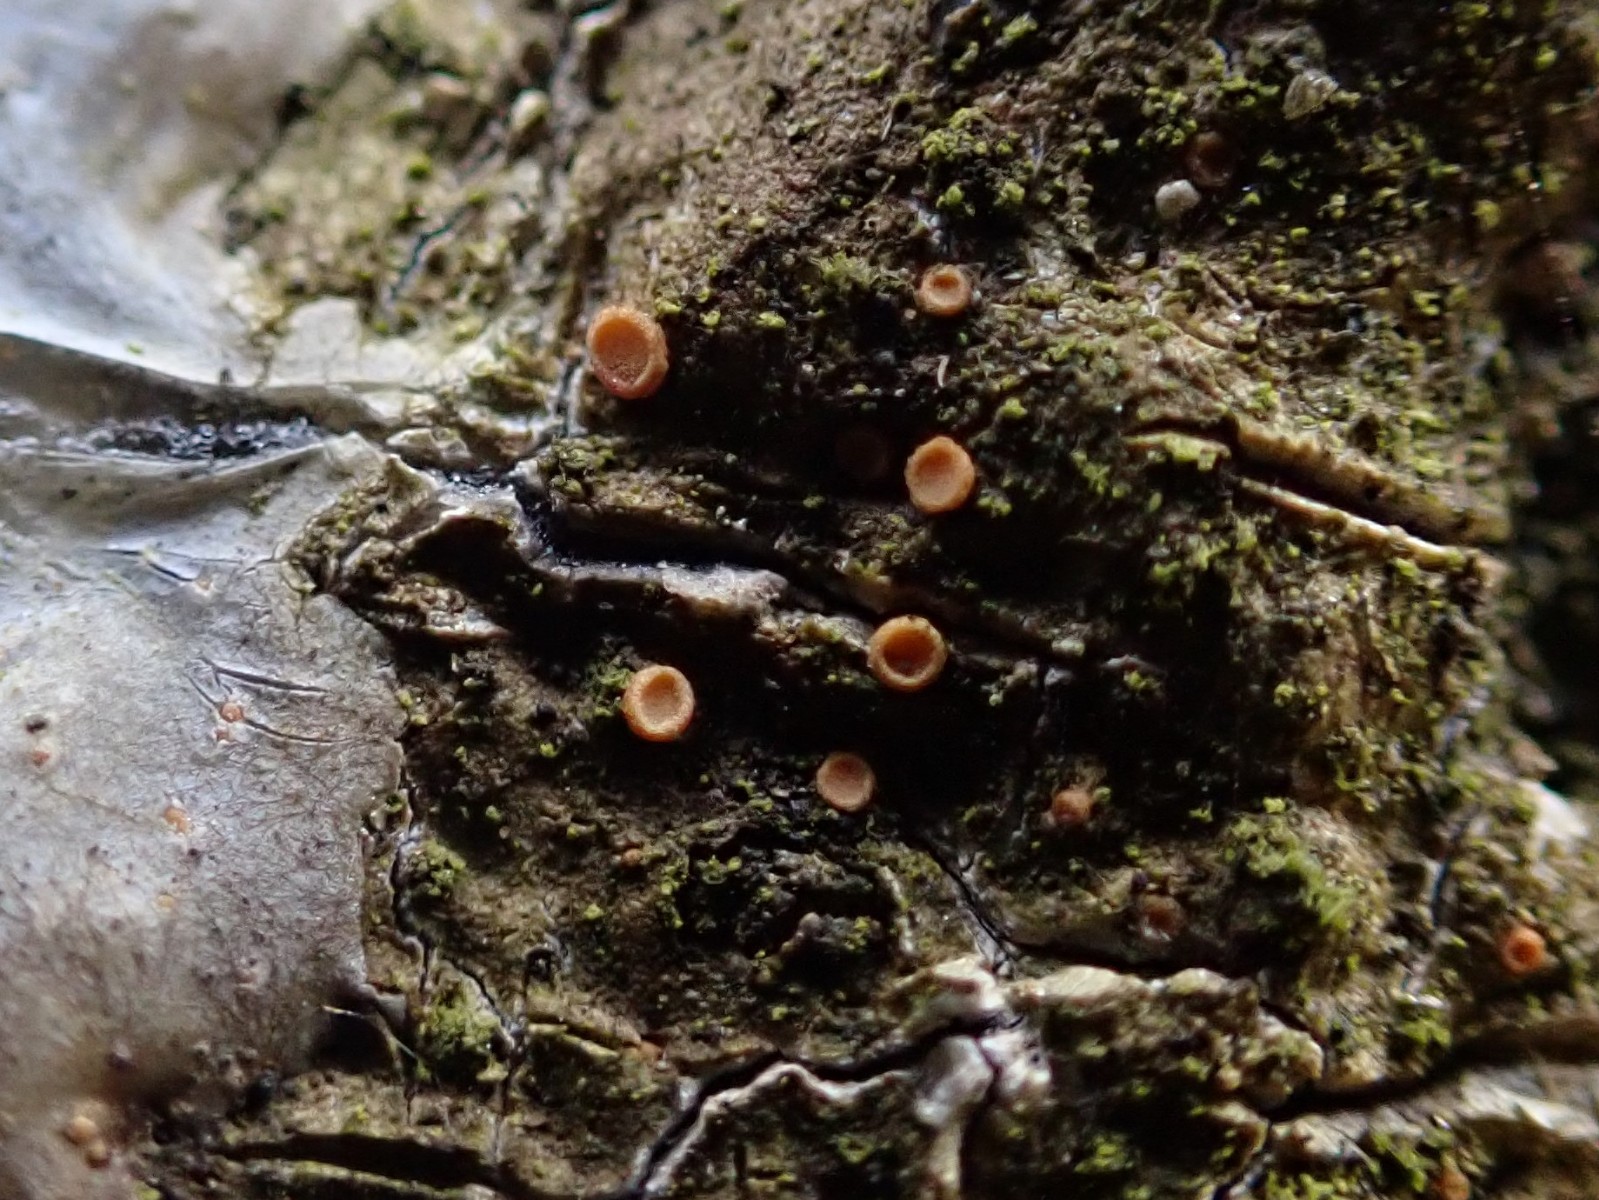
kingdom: Fungi
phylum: Ascomycota
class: Sareomycetes
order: Sareales
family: Sareaceae
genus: Sarea
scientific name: Sarea resinae
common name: orangegul harpiksskive
